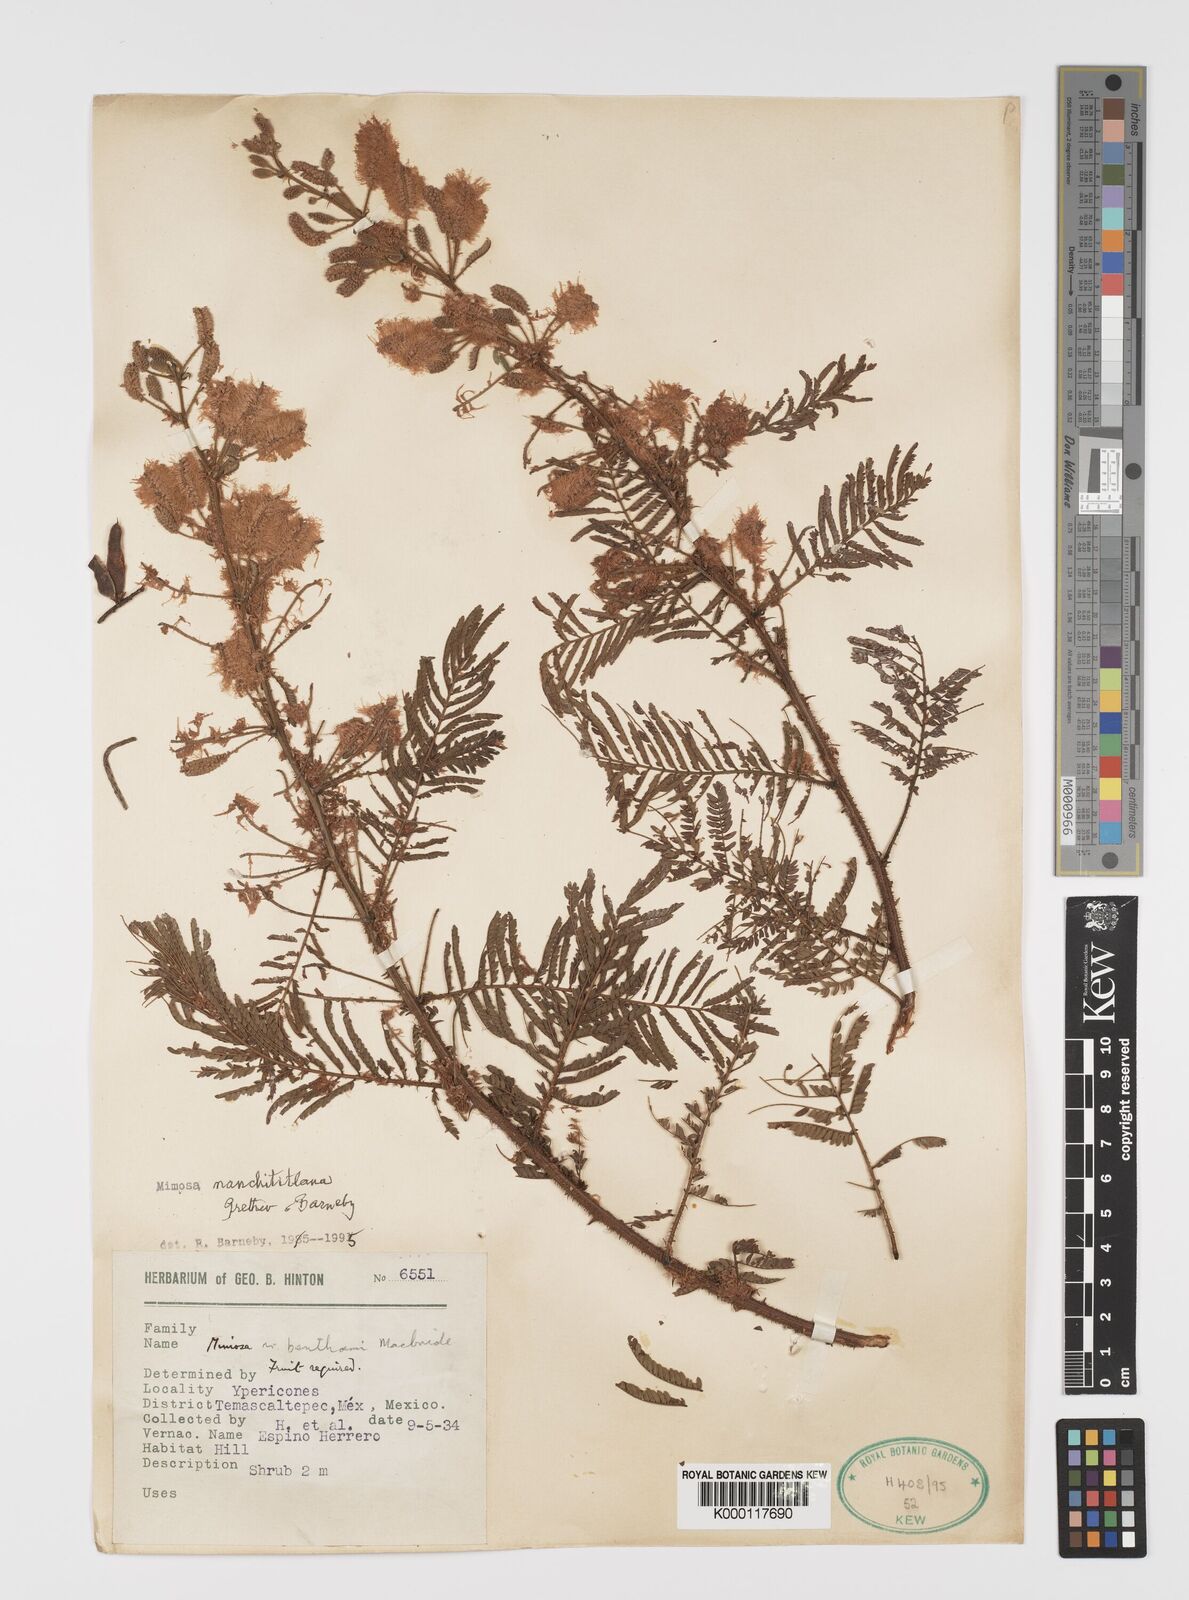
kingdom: Plantae
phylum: Tracheophyta
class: Magnoliopsida
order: Fabales
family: Fabaceae
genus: Mimosa
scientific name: Mimosa nanchititlana
